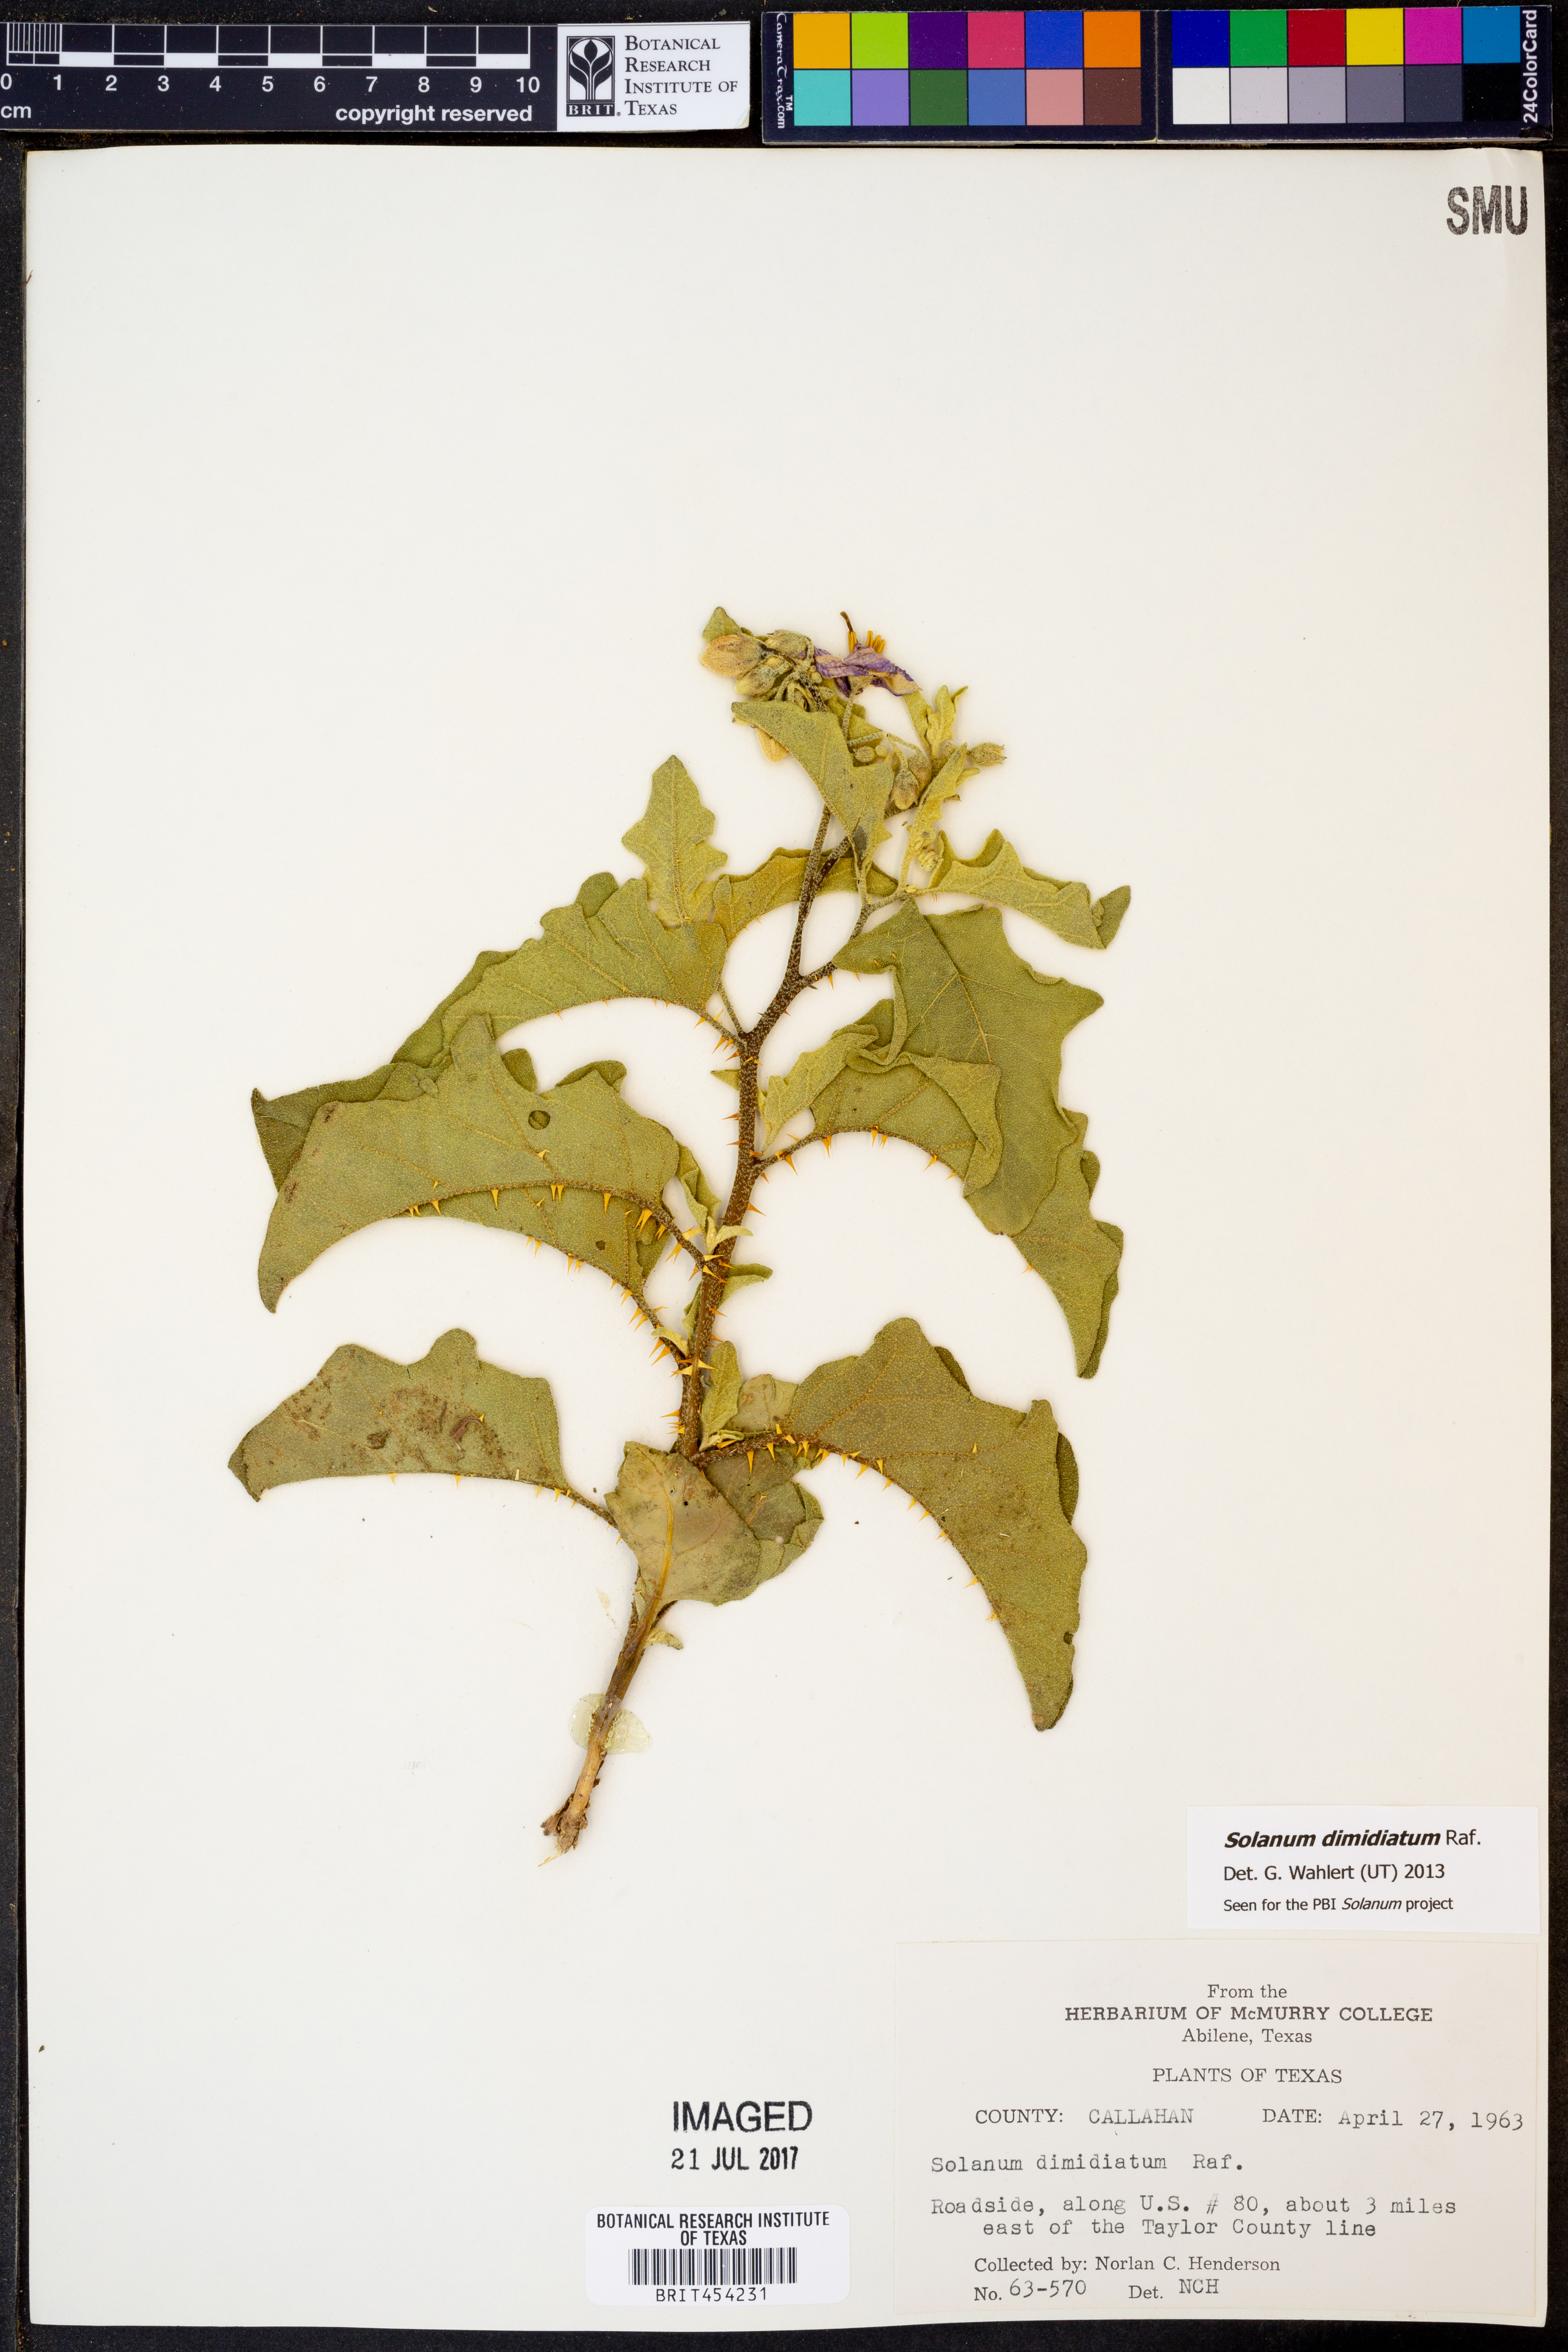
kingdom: Plantae
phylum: Tracheophyta
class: Magnoliopsida
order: Solanales
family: Solanaceae
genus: Solanum
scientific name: Solanum dimidiatum
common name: Carolina horse-nettle
